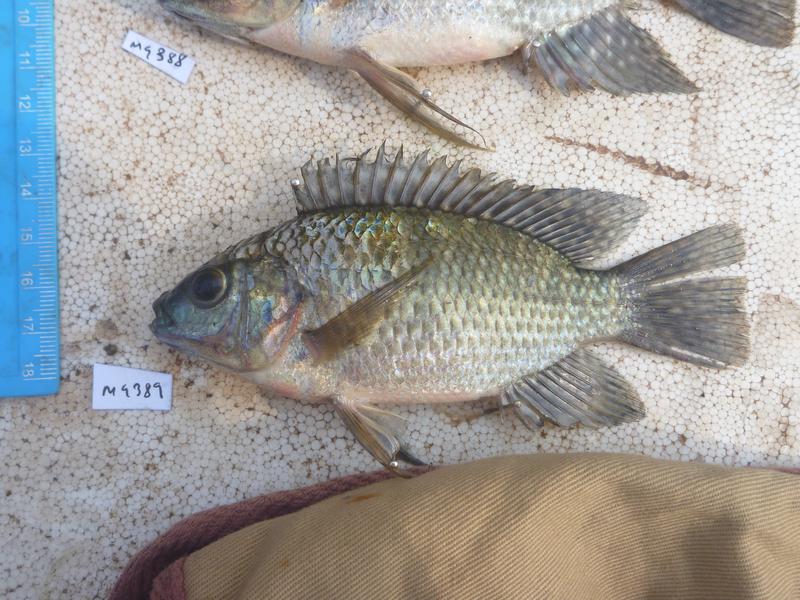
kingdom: Animalia
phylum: Chordata
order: Perciformes
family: Cichlidae
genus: Oreochromis
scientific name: Oreochromis leucostictus
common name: Blue spotted tilapia
